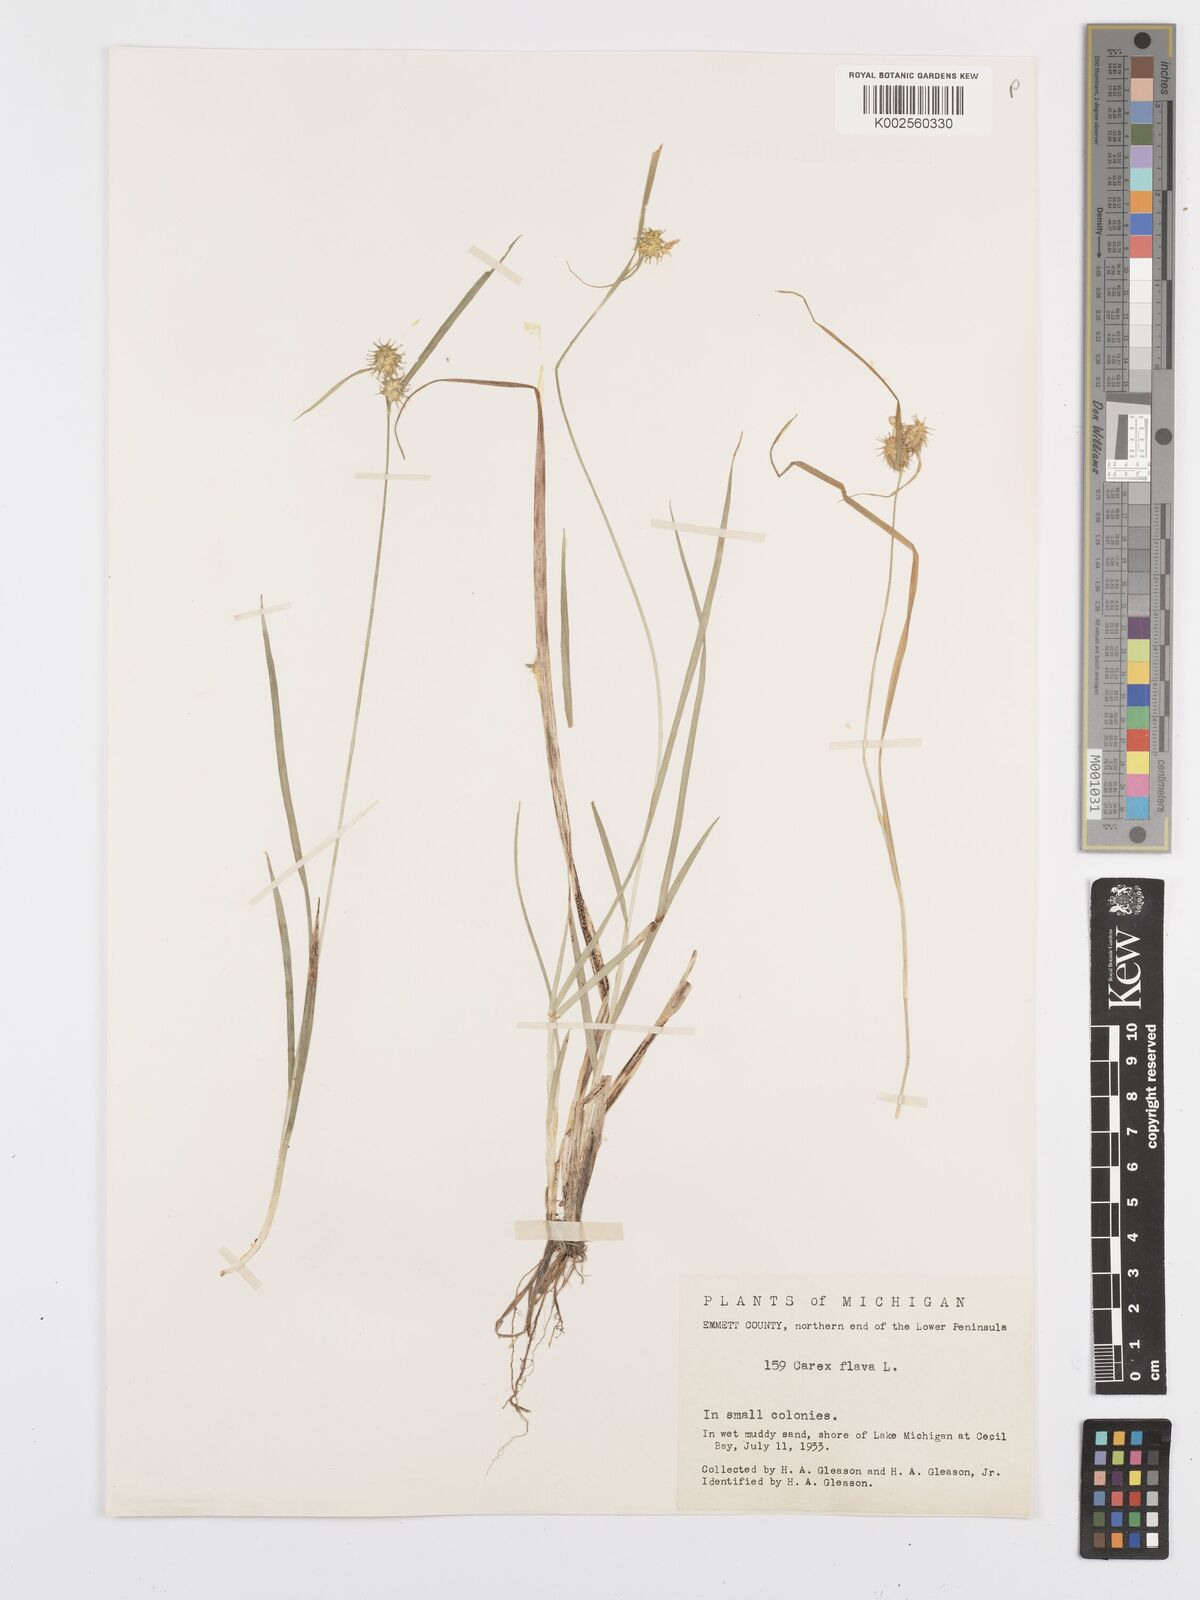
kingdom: Plantae
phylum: Tracheophyta
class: Liliopsida
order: Poales
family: Cyperaceae
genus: Carex
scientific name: Carex flava
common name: Large yellow-sedge
